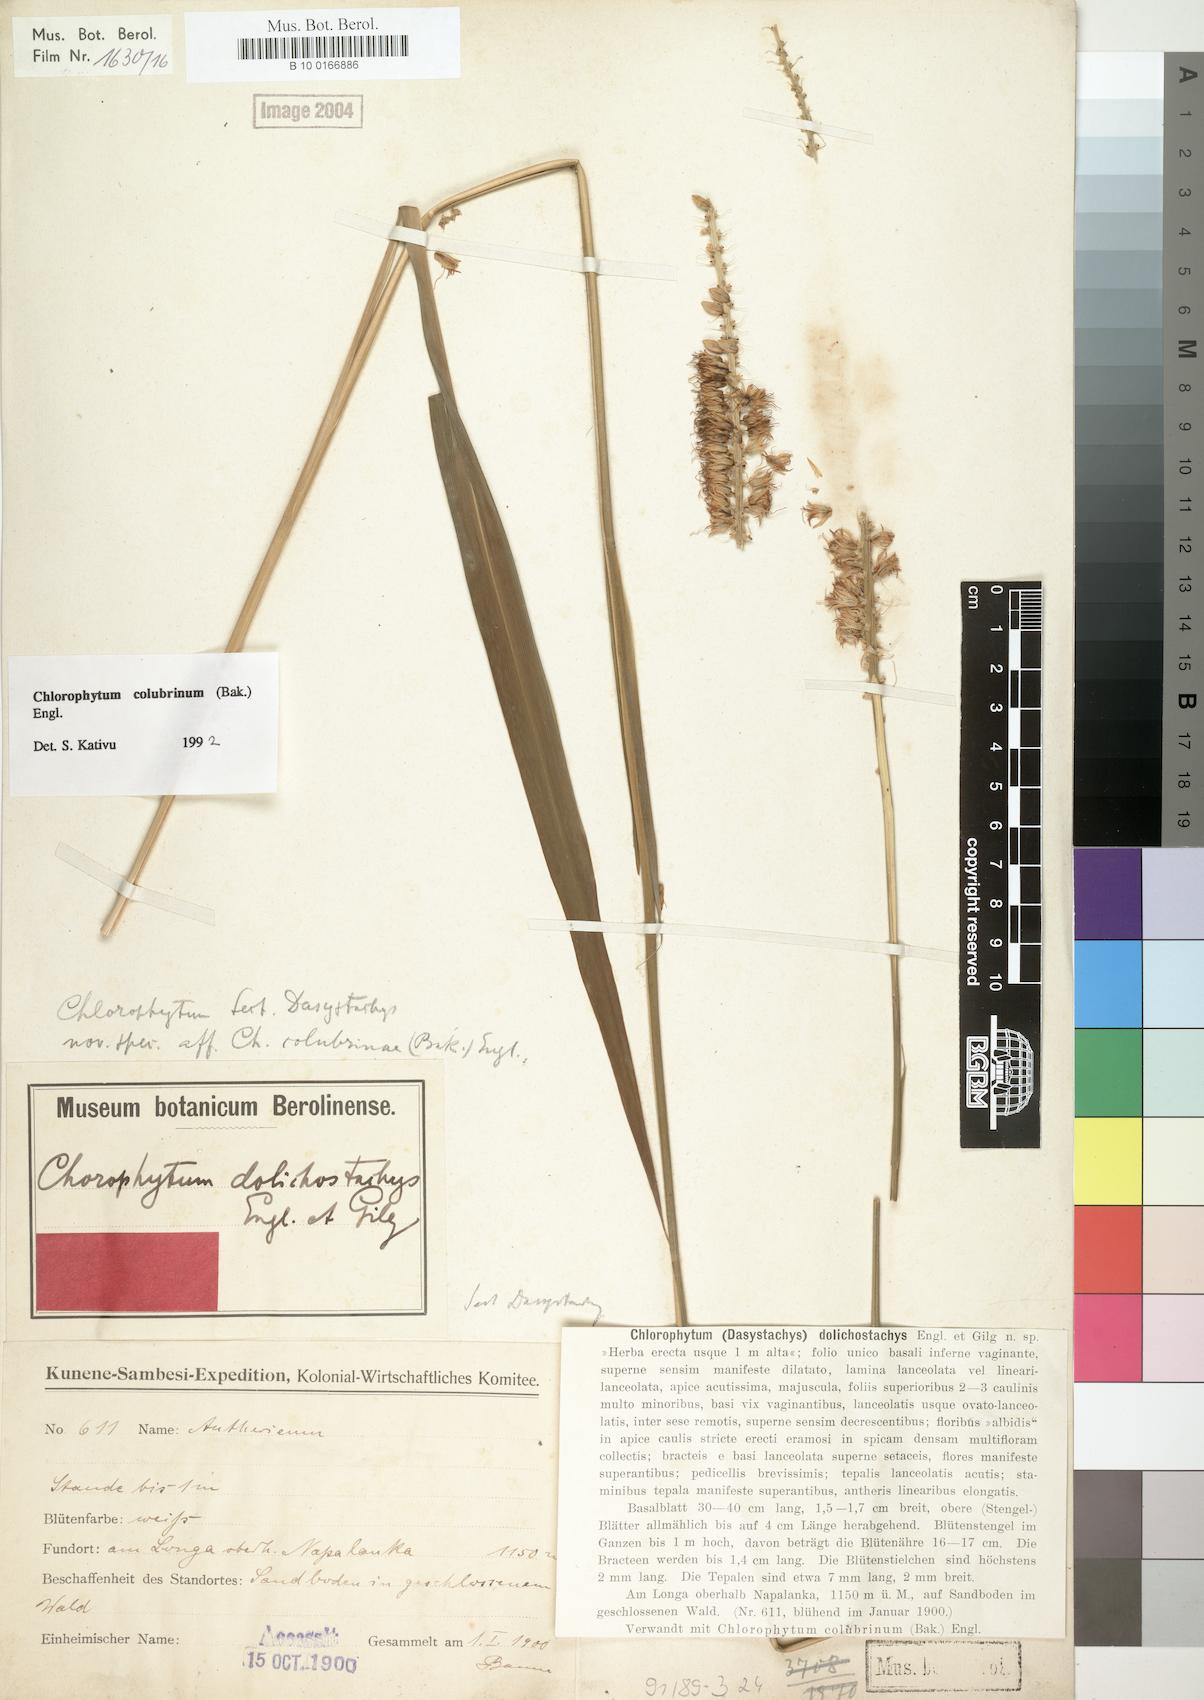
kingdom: Plantae
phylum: Tracheophyta
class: Liliopsida
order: Asparagales
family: Asparagaceae
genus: Chlorophytum
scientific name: Chlorophytum colubrinum
